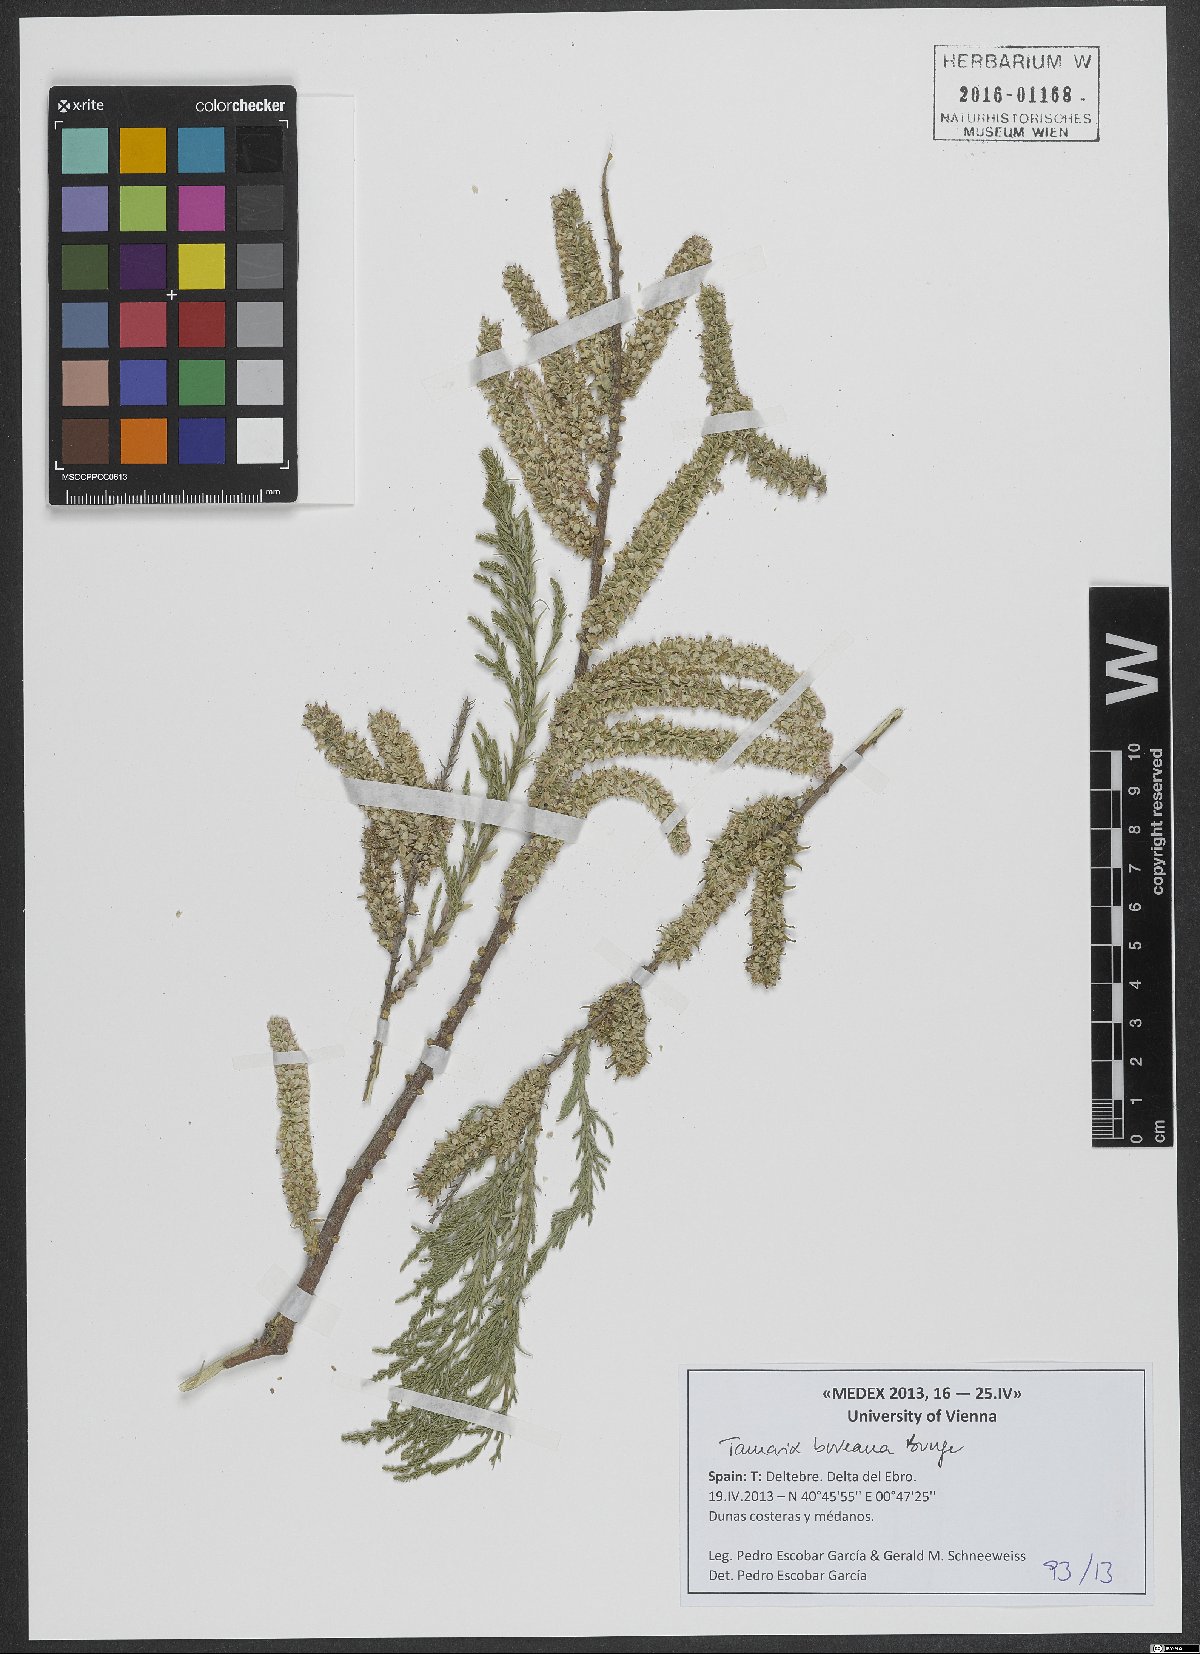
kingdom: Plantae
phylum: Tracheophyta
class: Magnoliopsida
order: Caryophyllales
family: Tamaricaceae
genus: Tamarix
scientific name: Tamarix boveana
